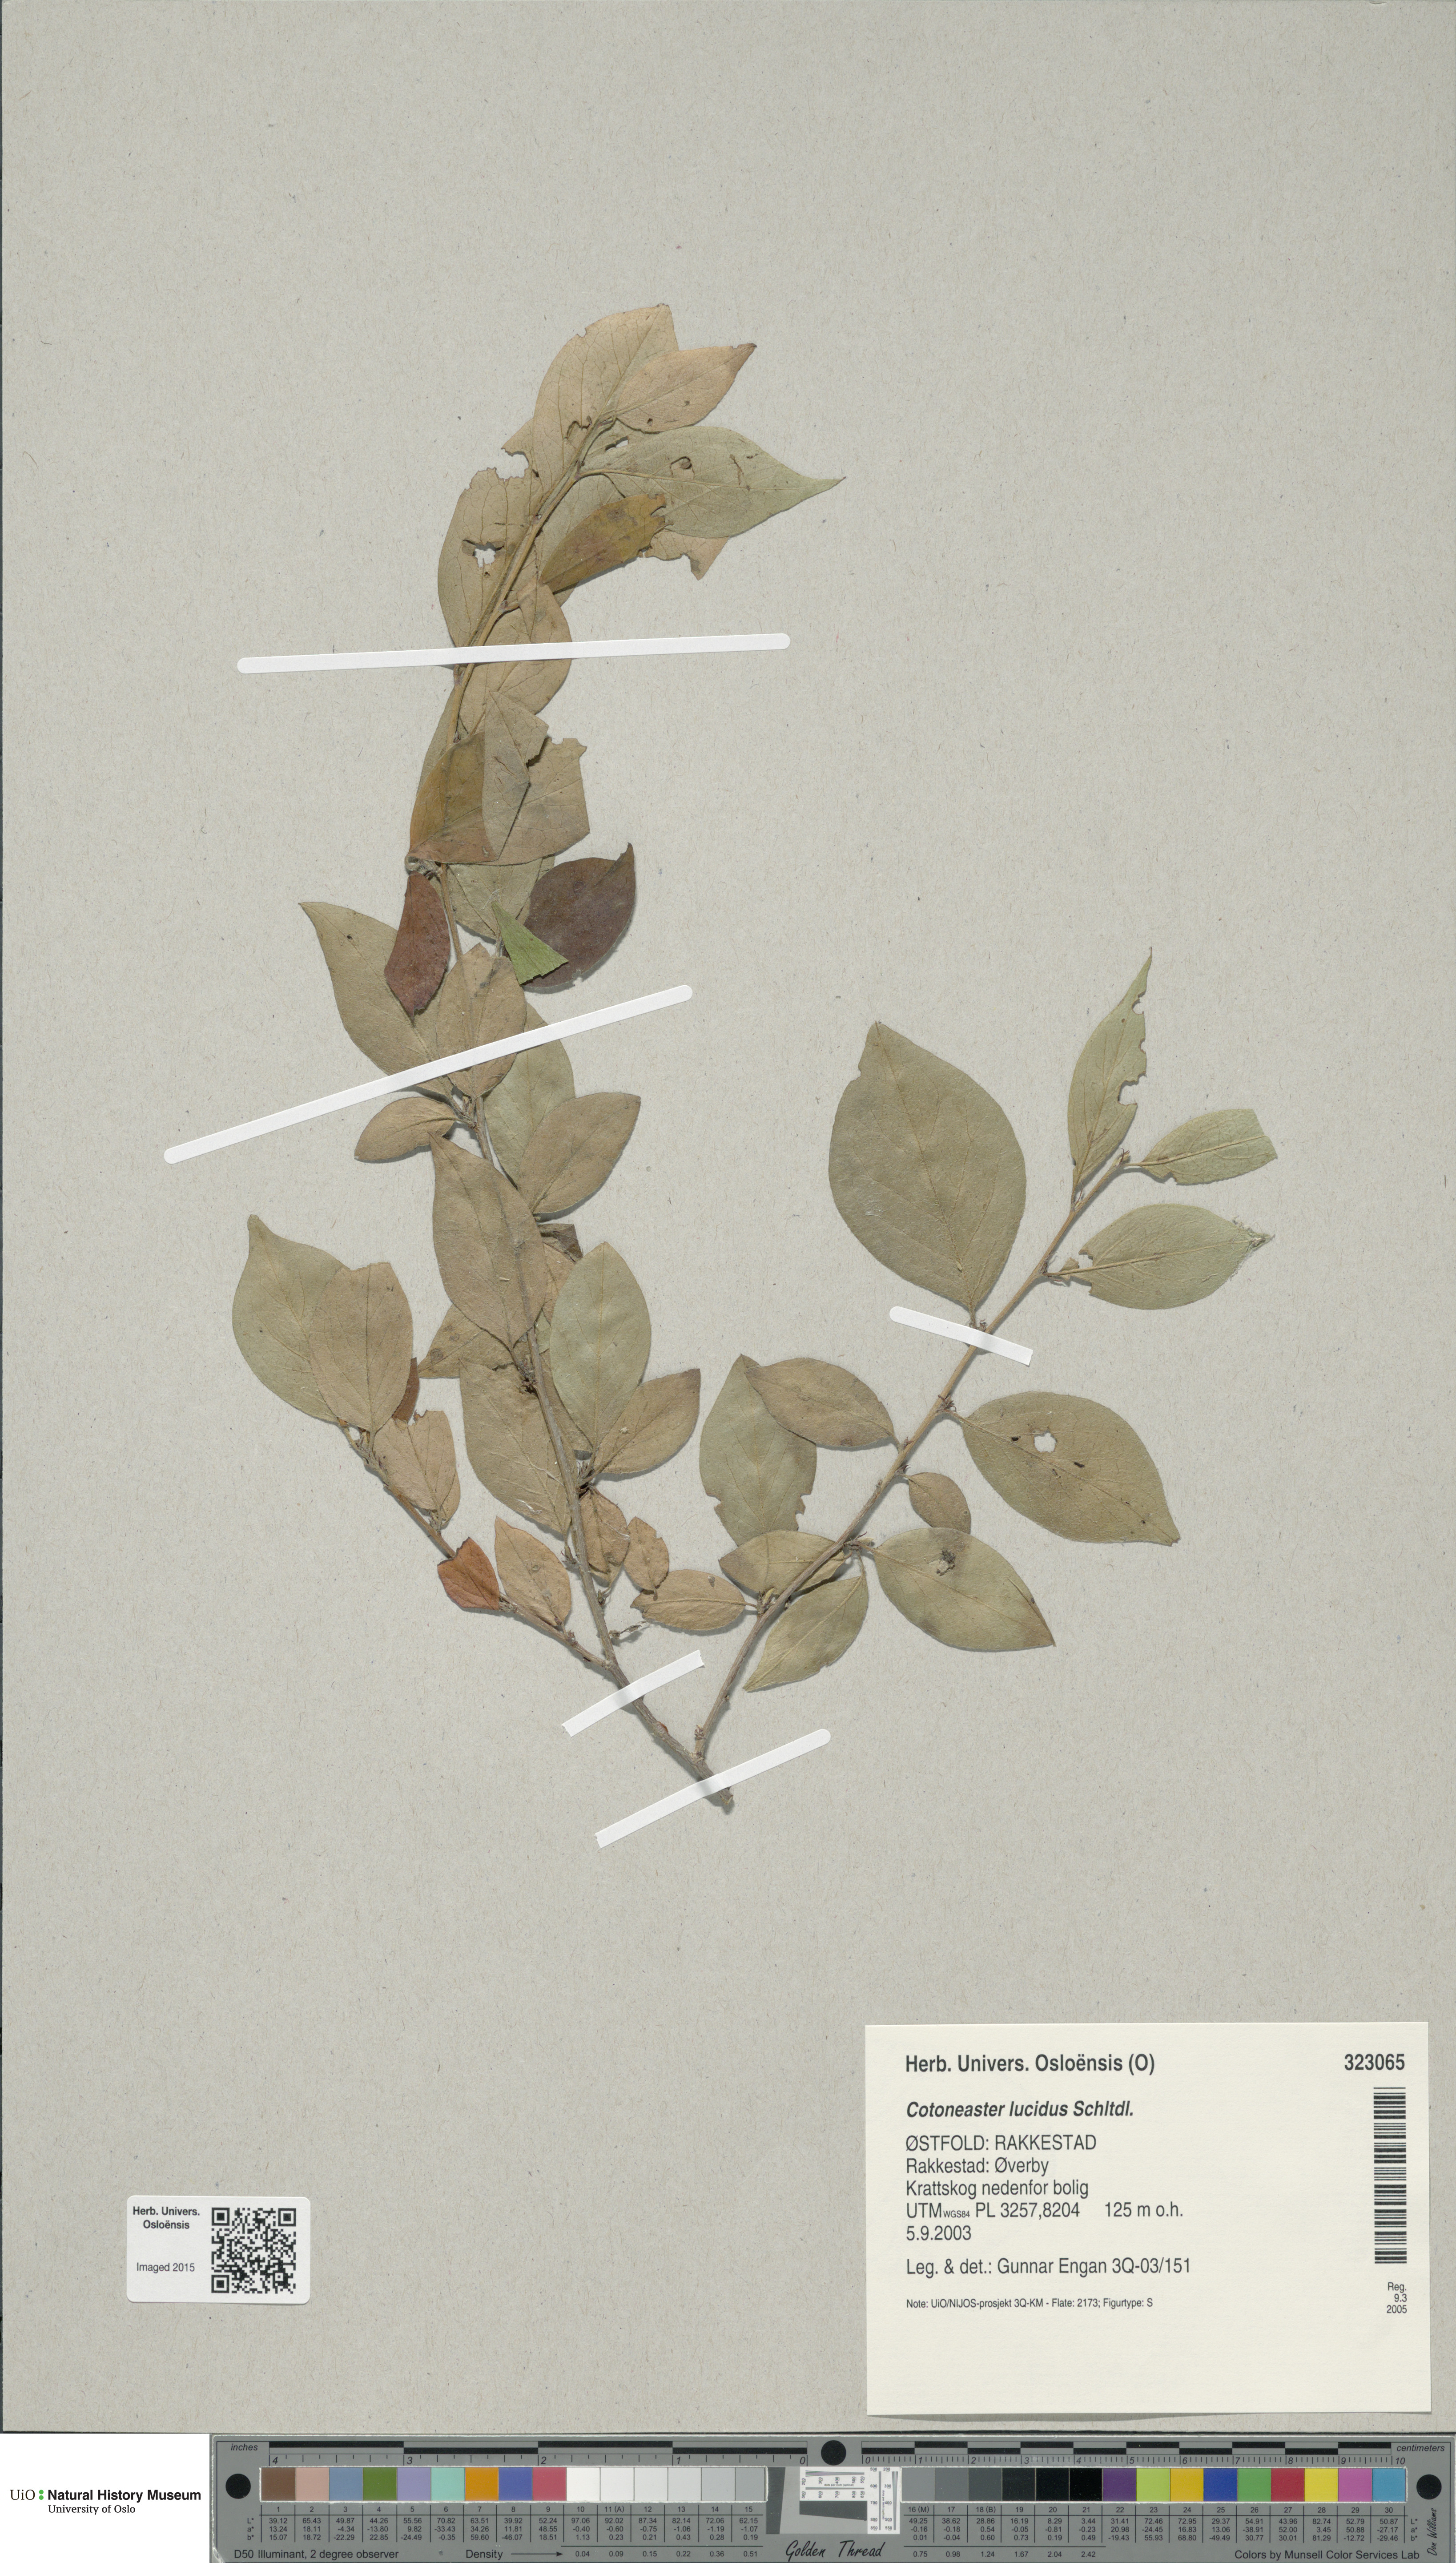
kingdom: Plantae
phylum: Tracheophyta
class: Magnoliopsida
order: Rosales
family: Rosaceae
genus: Cotoneaster
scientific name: Cotoneaster acutifolius
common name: Peking cotoneaster
